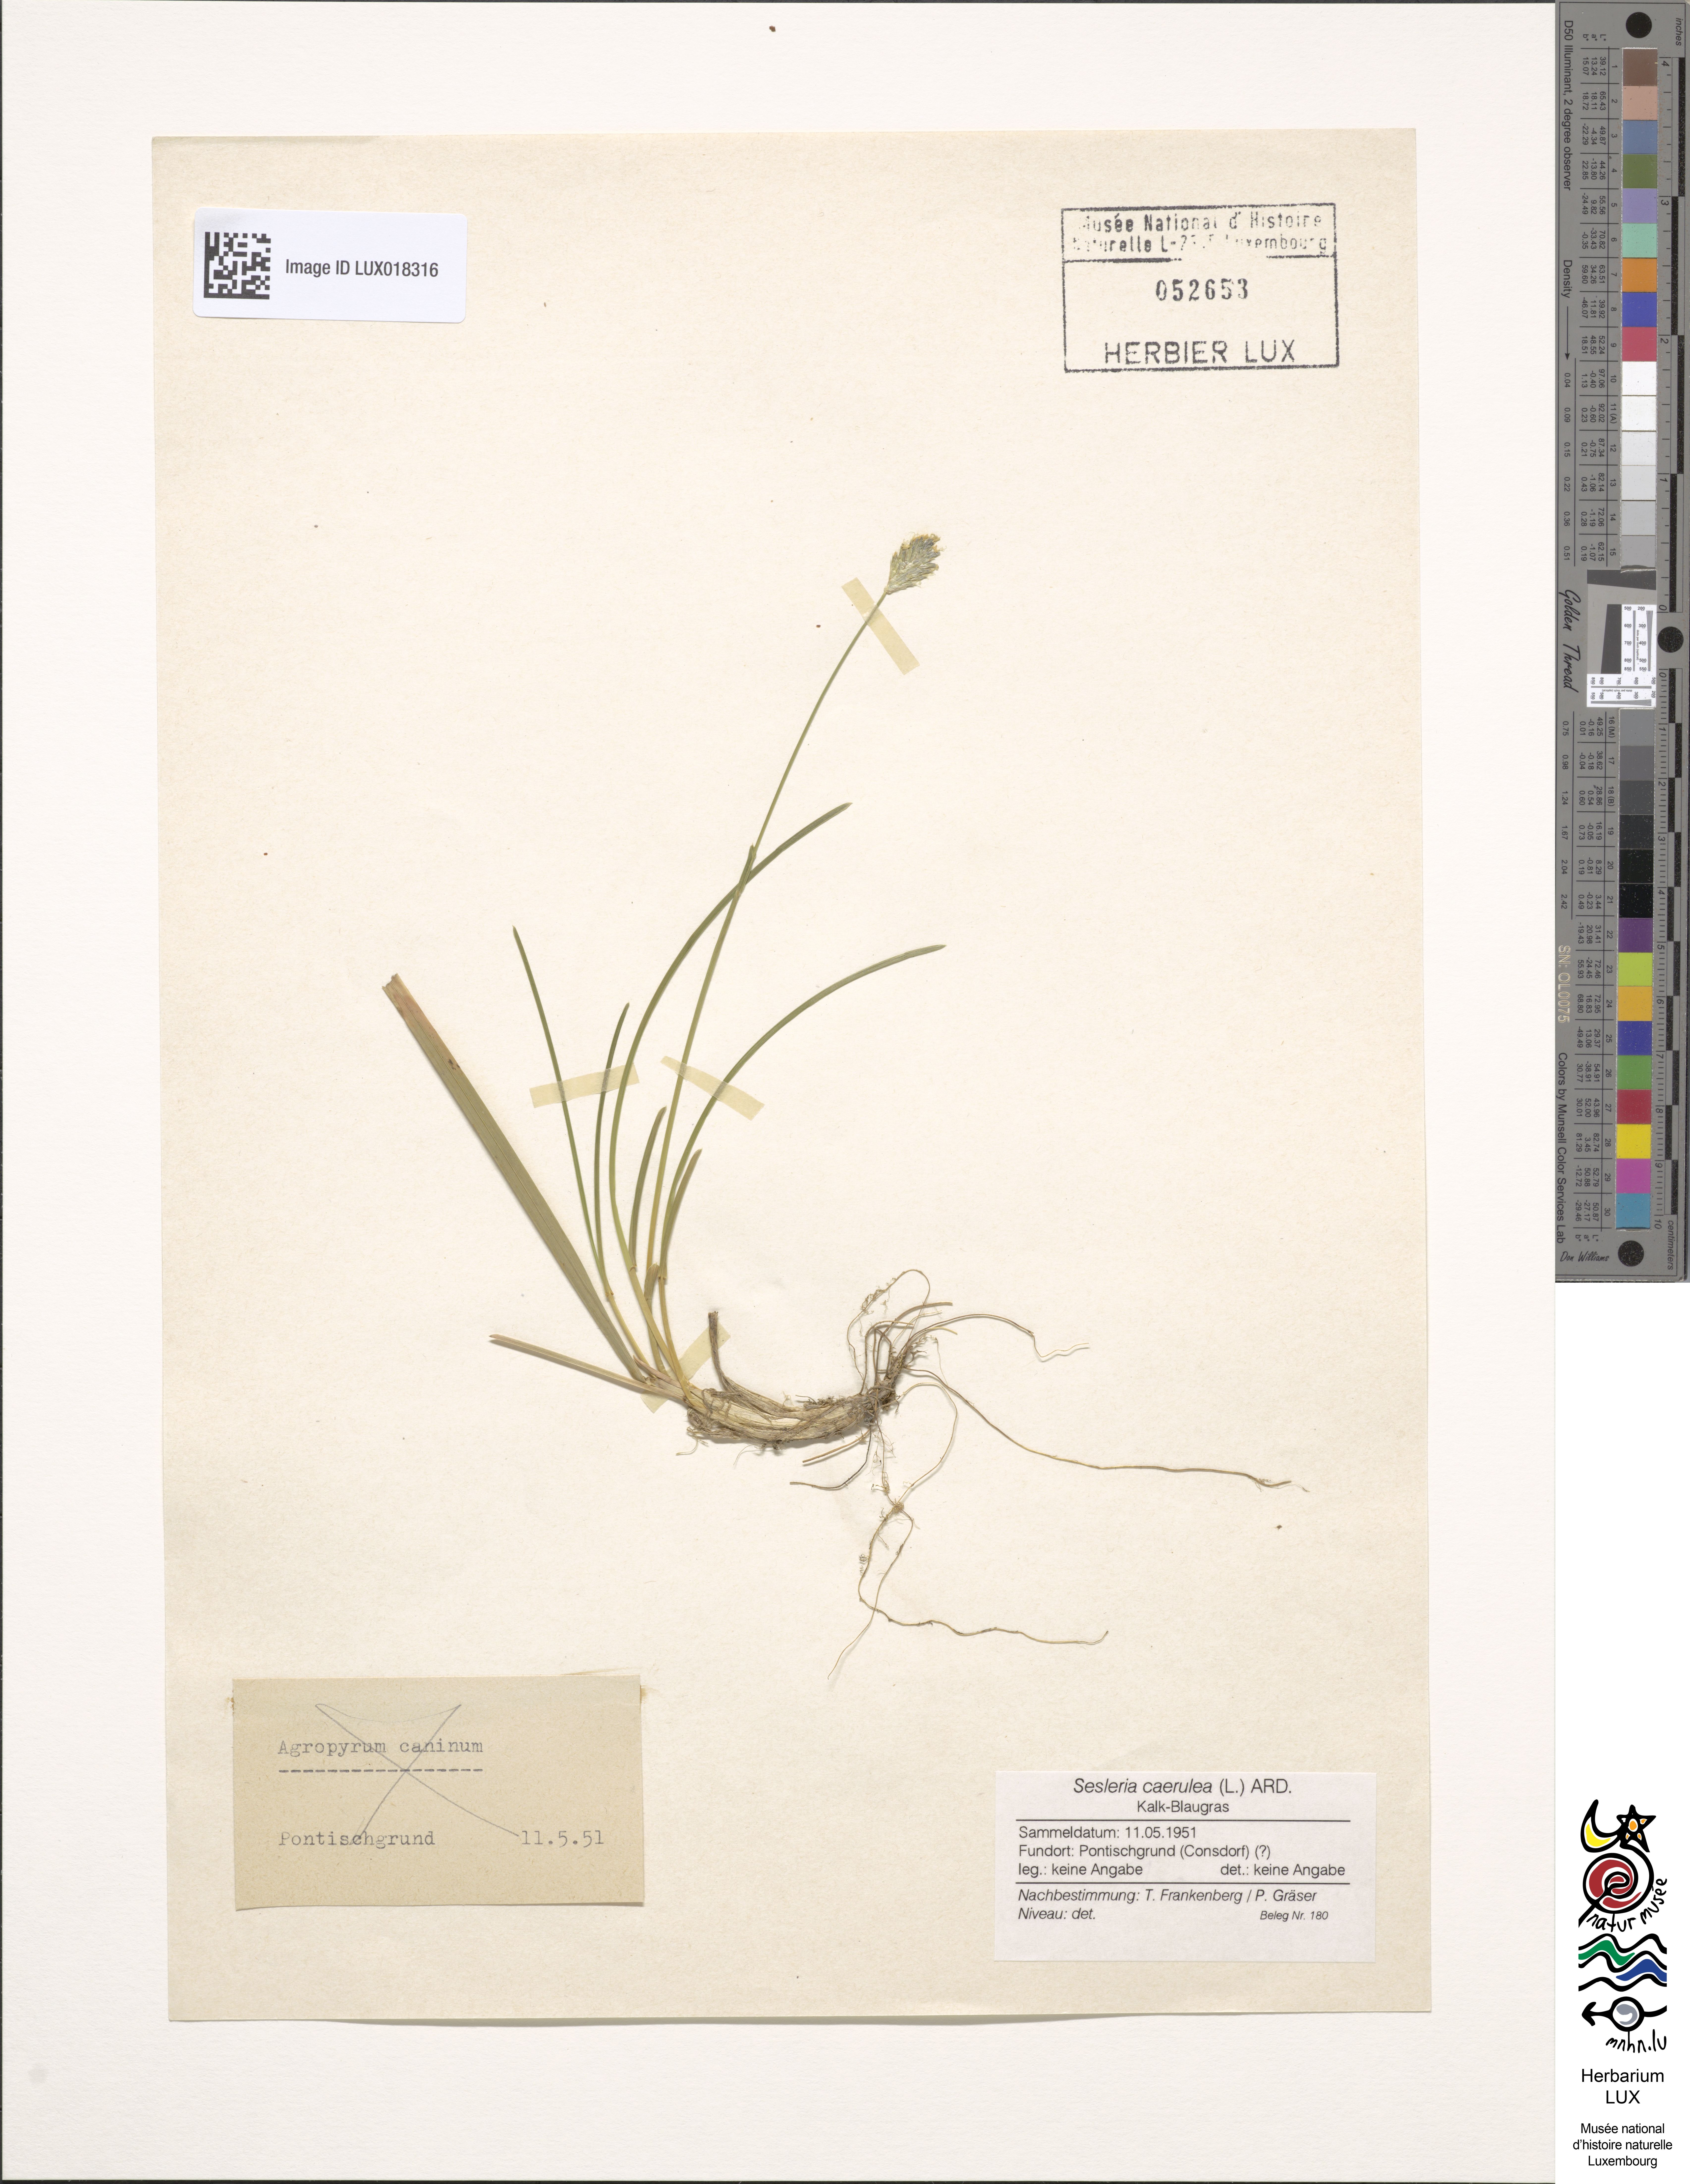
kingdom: Plantae
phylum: Tracheophyta
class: Liliopsida
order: Poales
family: Poaceae
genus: Sesleria
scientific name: Sesleria caerulea
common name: Blue moor-grass
